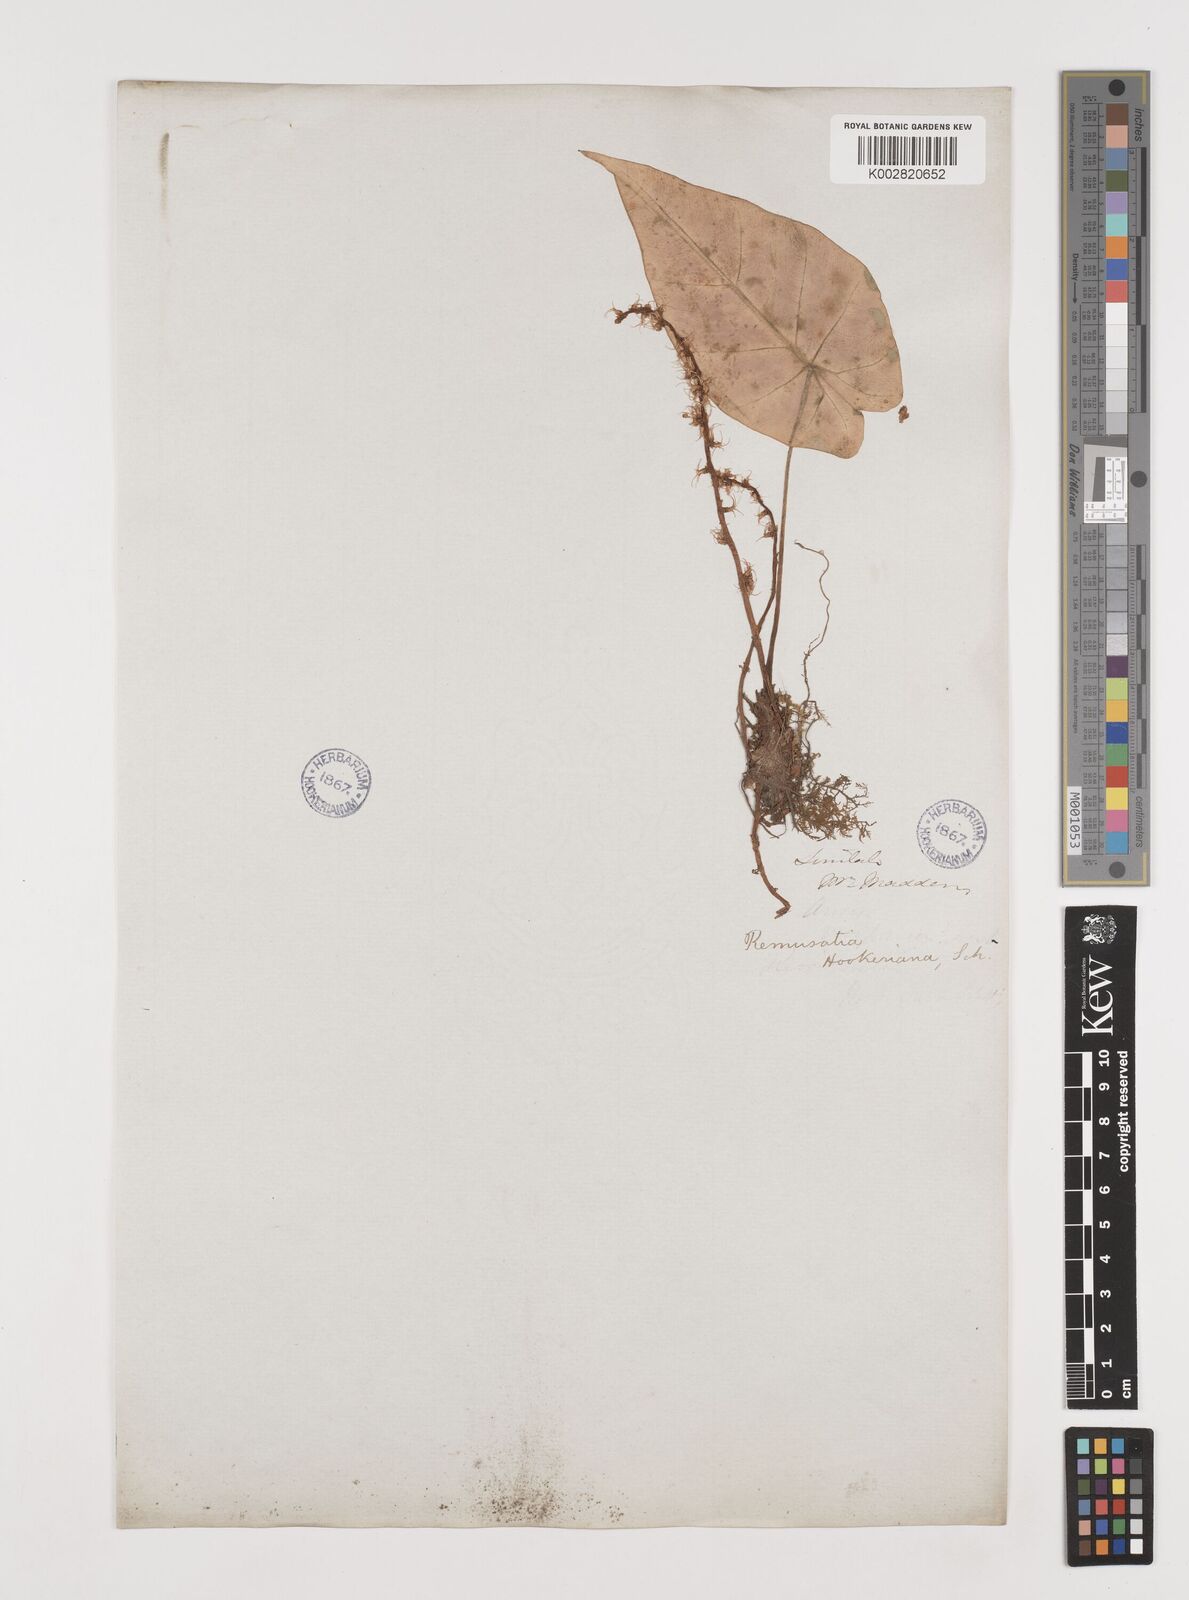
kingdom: Plantae
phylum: Tracheophyta
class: Liliopsida
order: Alismatales
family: Araceae
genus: Remusatia
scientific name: Remusatia hookeriana
